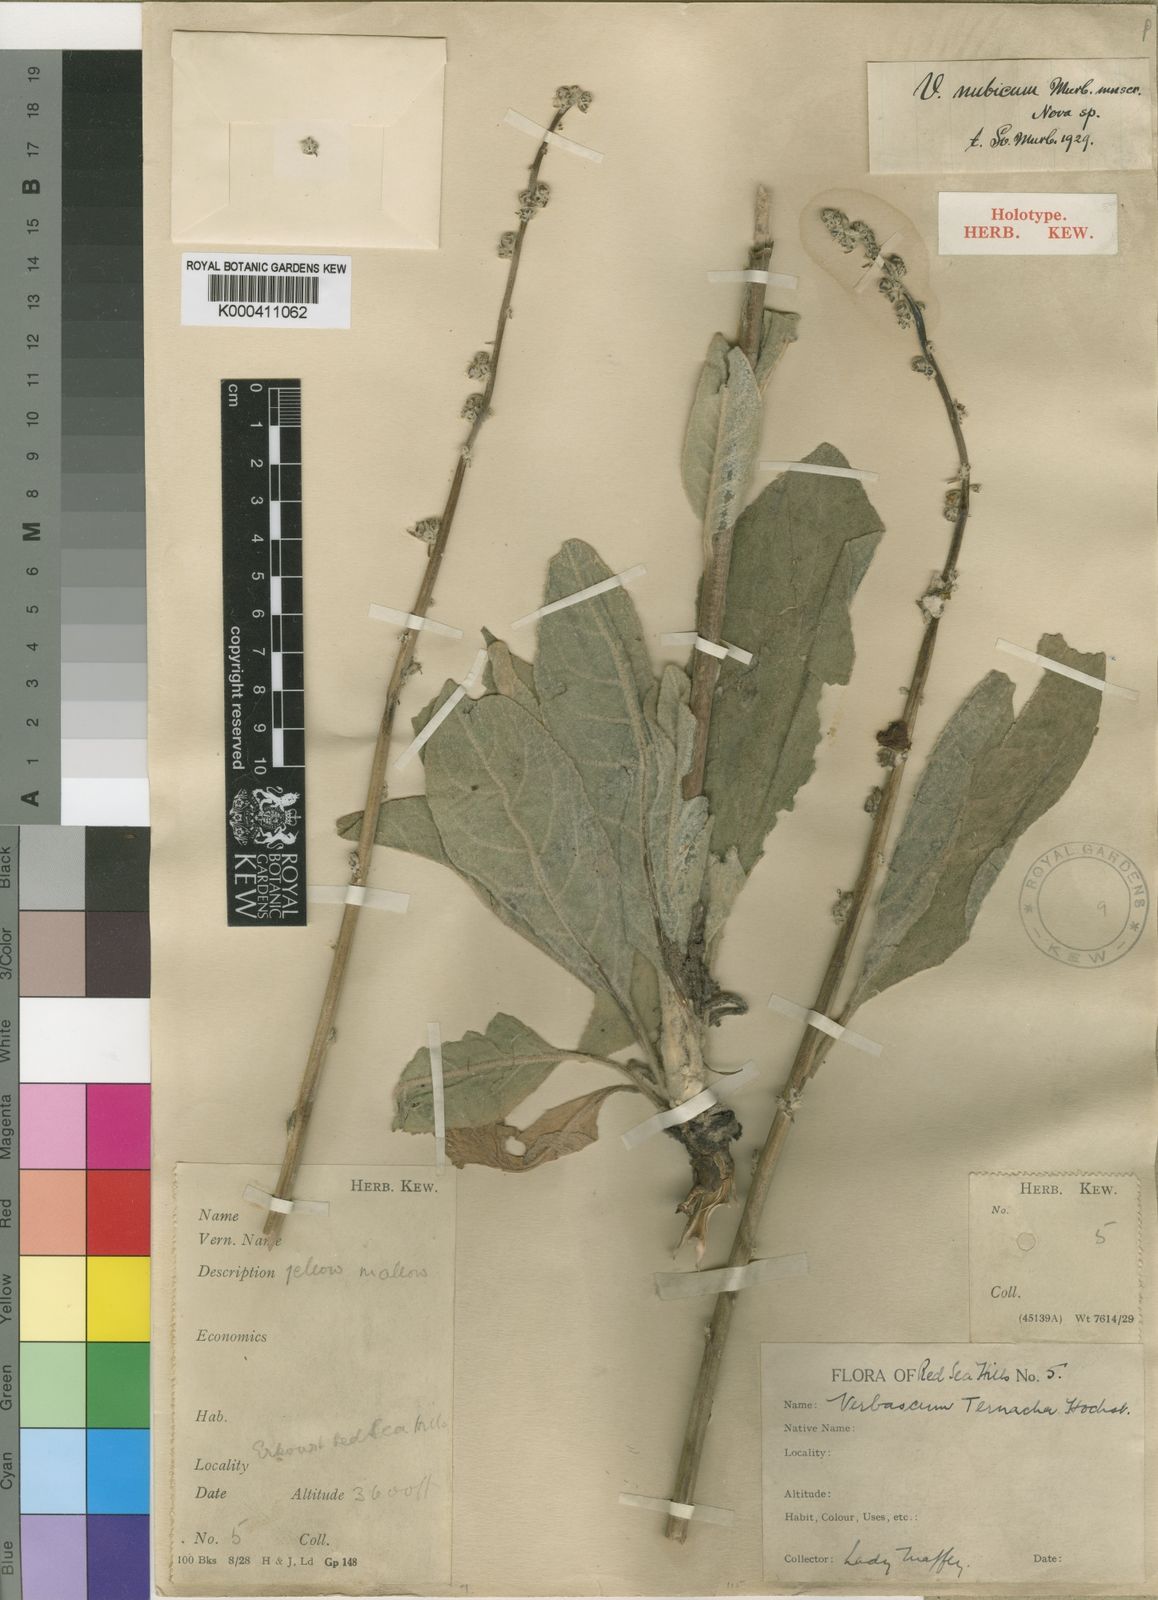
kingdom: Plantae
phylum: Tracheophyta
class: Magnoliopsida
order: Lamiales
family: Scrophulariaceae
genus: Verbascum
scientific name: Verbascum sinaiticum
